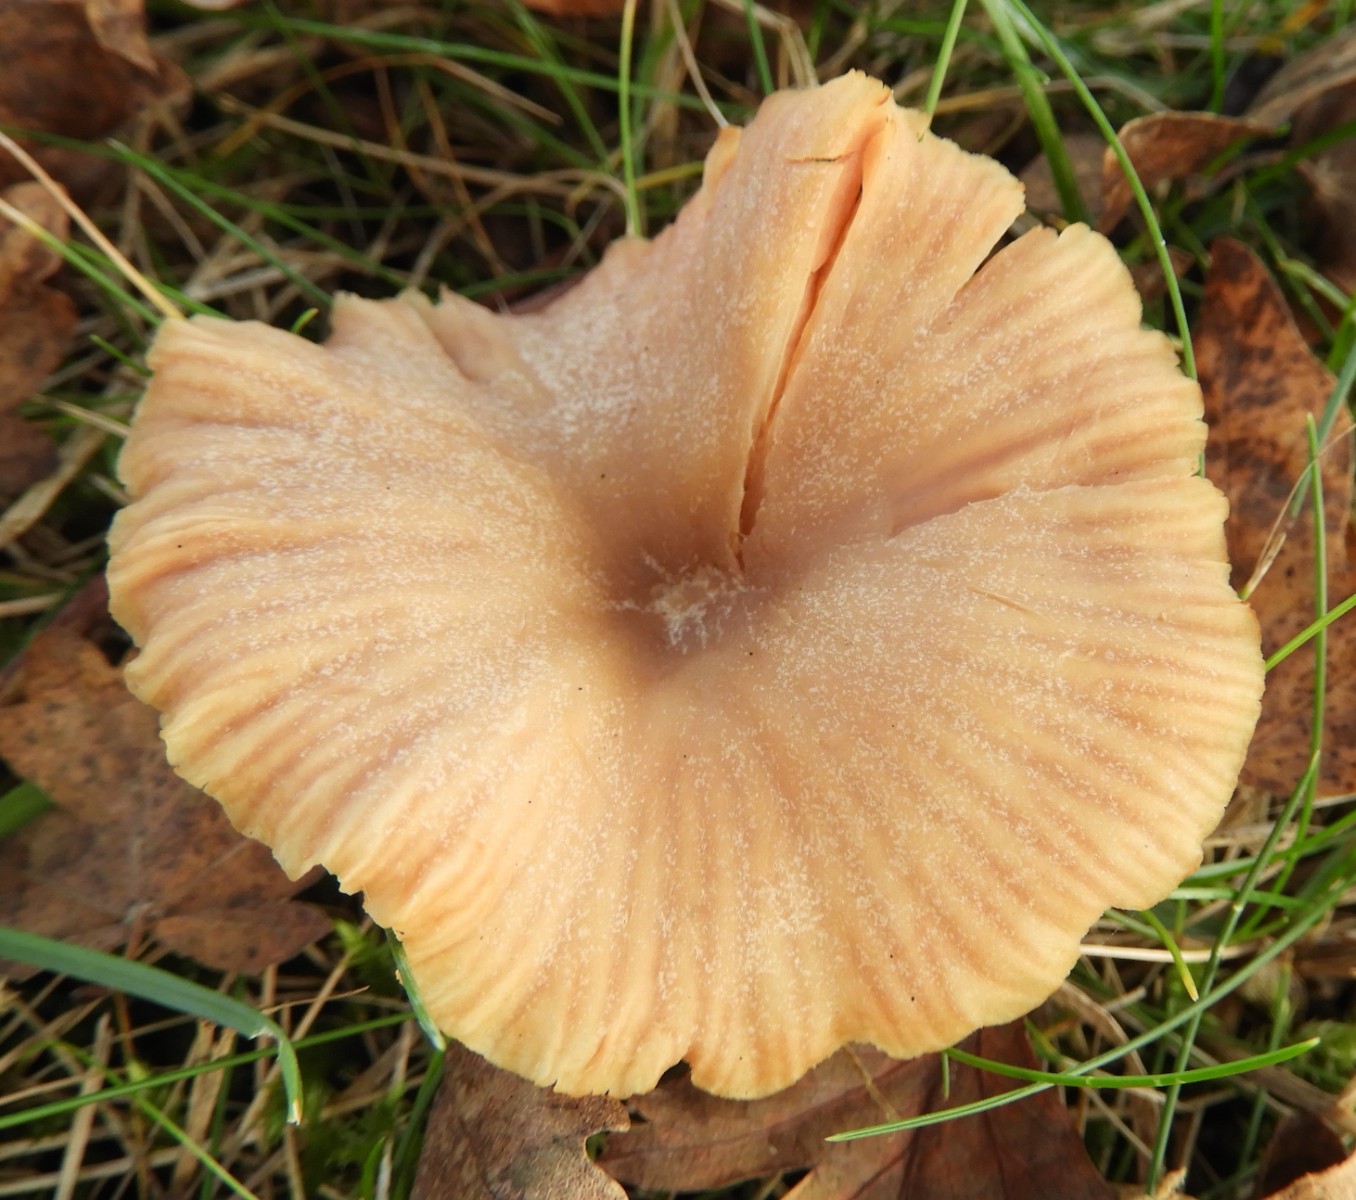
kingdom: Fungi
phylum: Basidiomycota
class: Agaricomycetes
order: Agaricales
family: Hydnangiaceae
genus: Laccaria
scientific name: Laccaria proxima
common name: stor ametysthat
